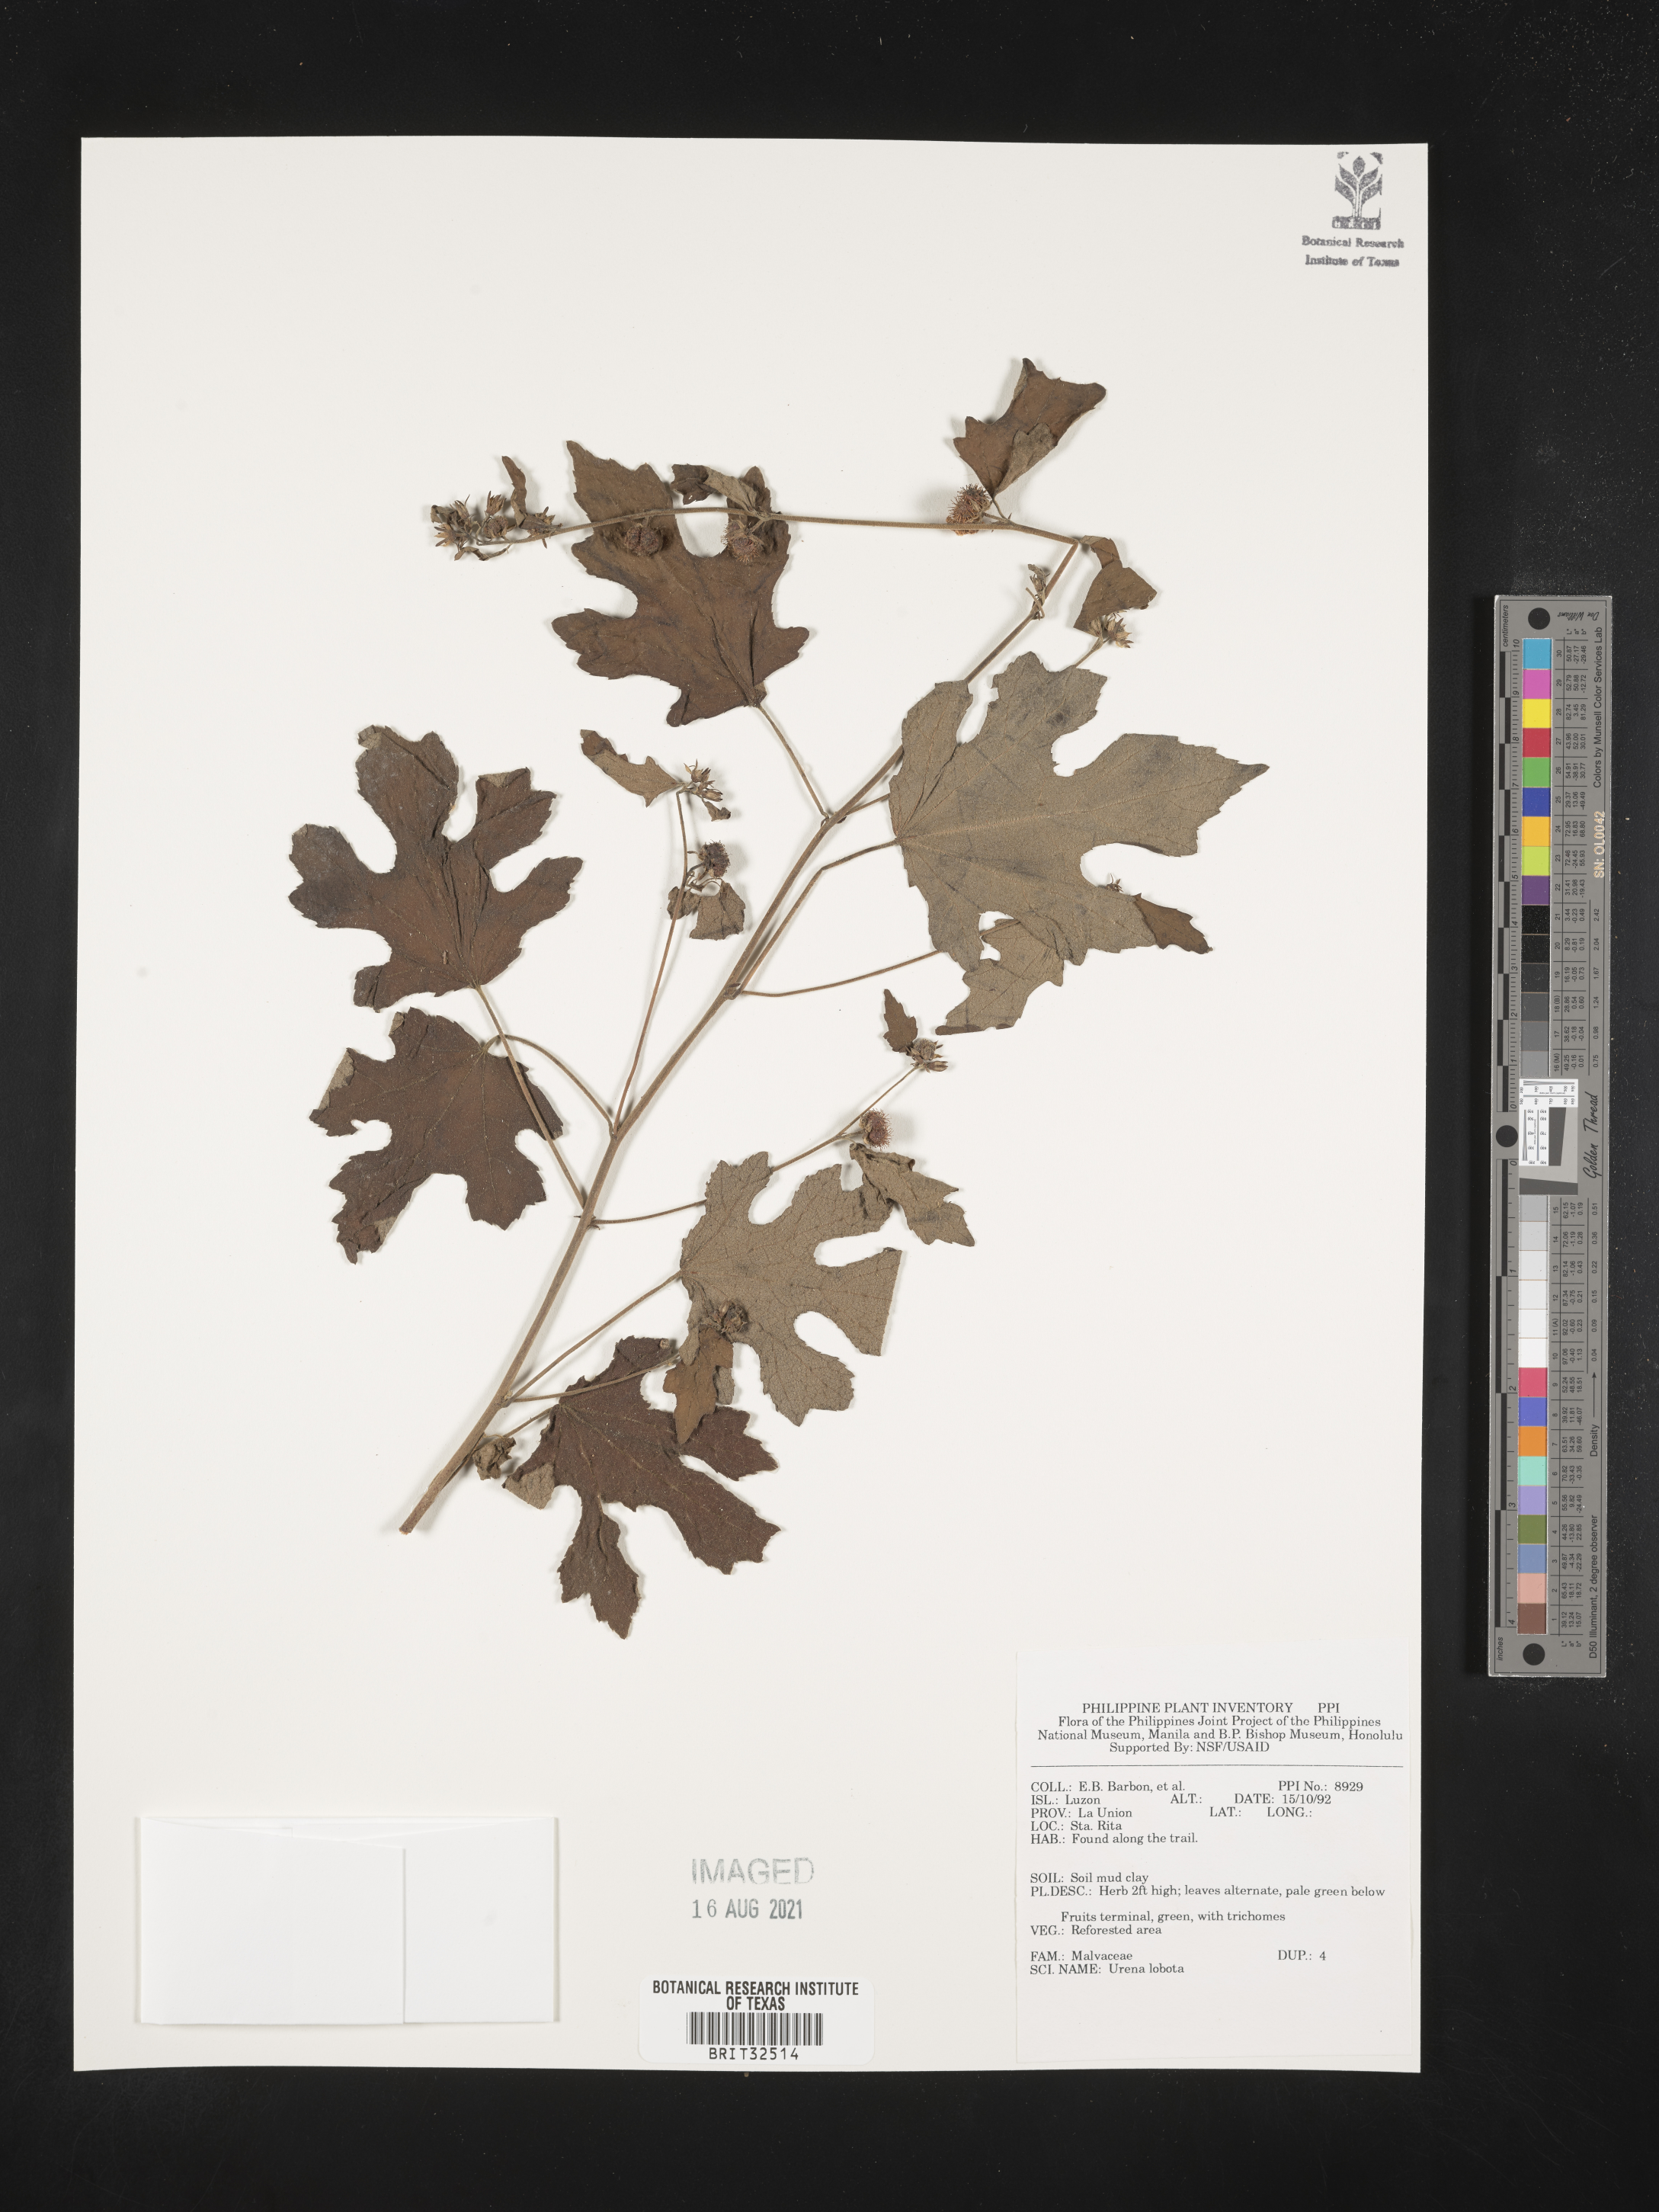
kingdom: Plantae
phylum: Tracheophyta
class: Magnoliopsida
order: Malvales
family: Malvaceae
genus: Urena
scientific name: Urena lobata
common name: Caesarweed
